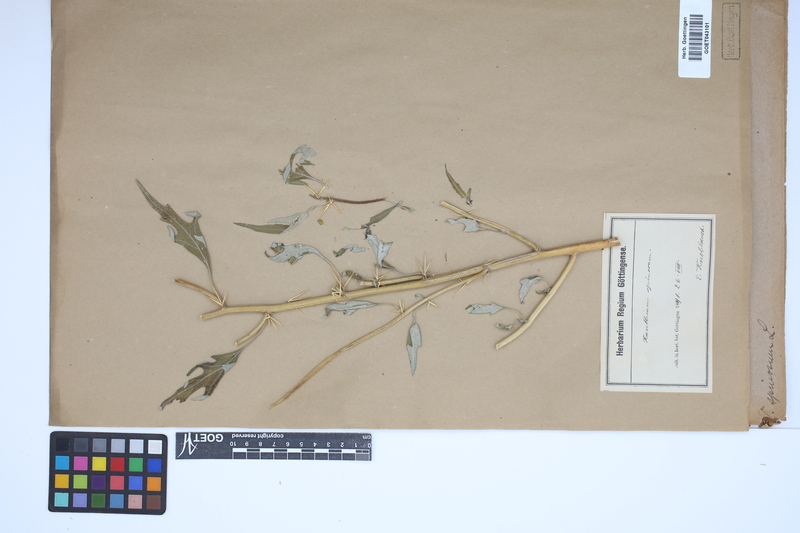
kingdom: Plantae
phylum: Tracheophyta
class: Magnoliopsida
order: Asterales
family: Asteraceae
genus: Xanthium
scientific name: Xanthium spinosum
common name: Spiny cocklebur
